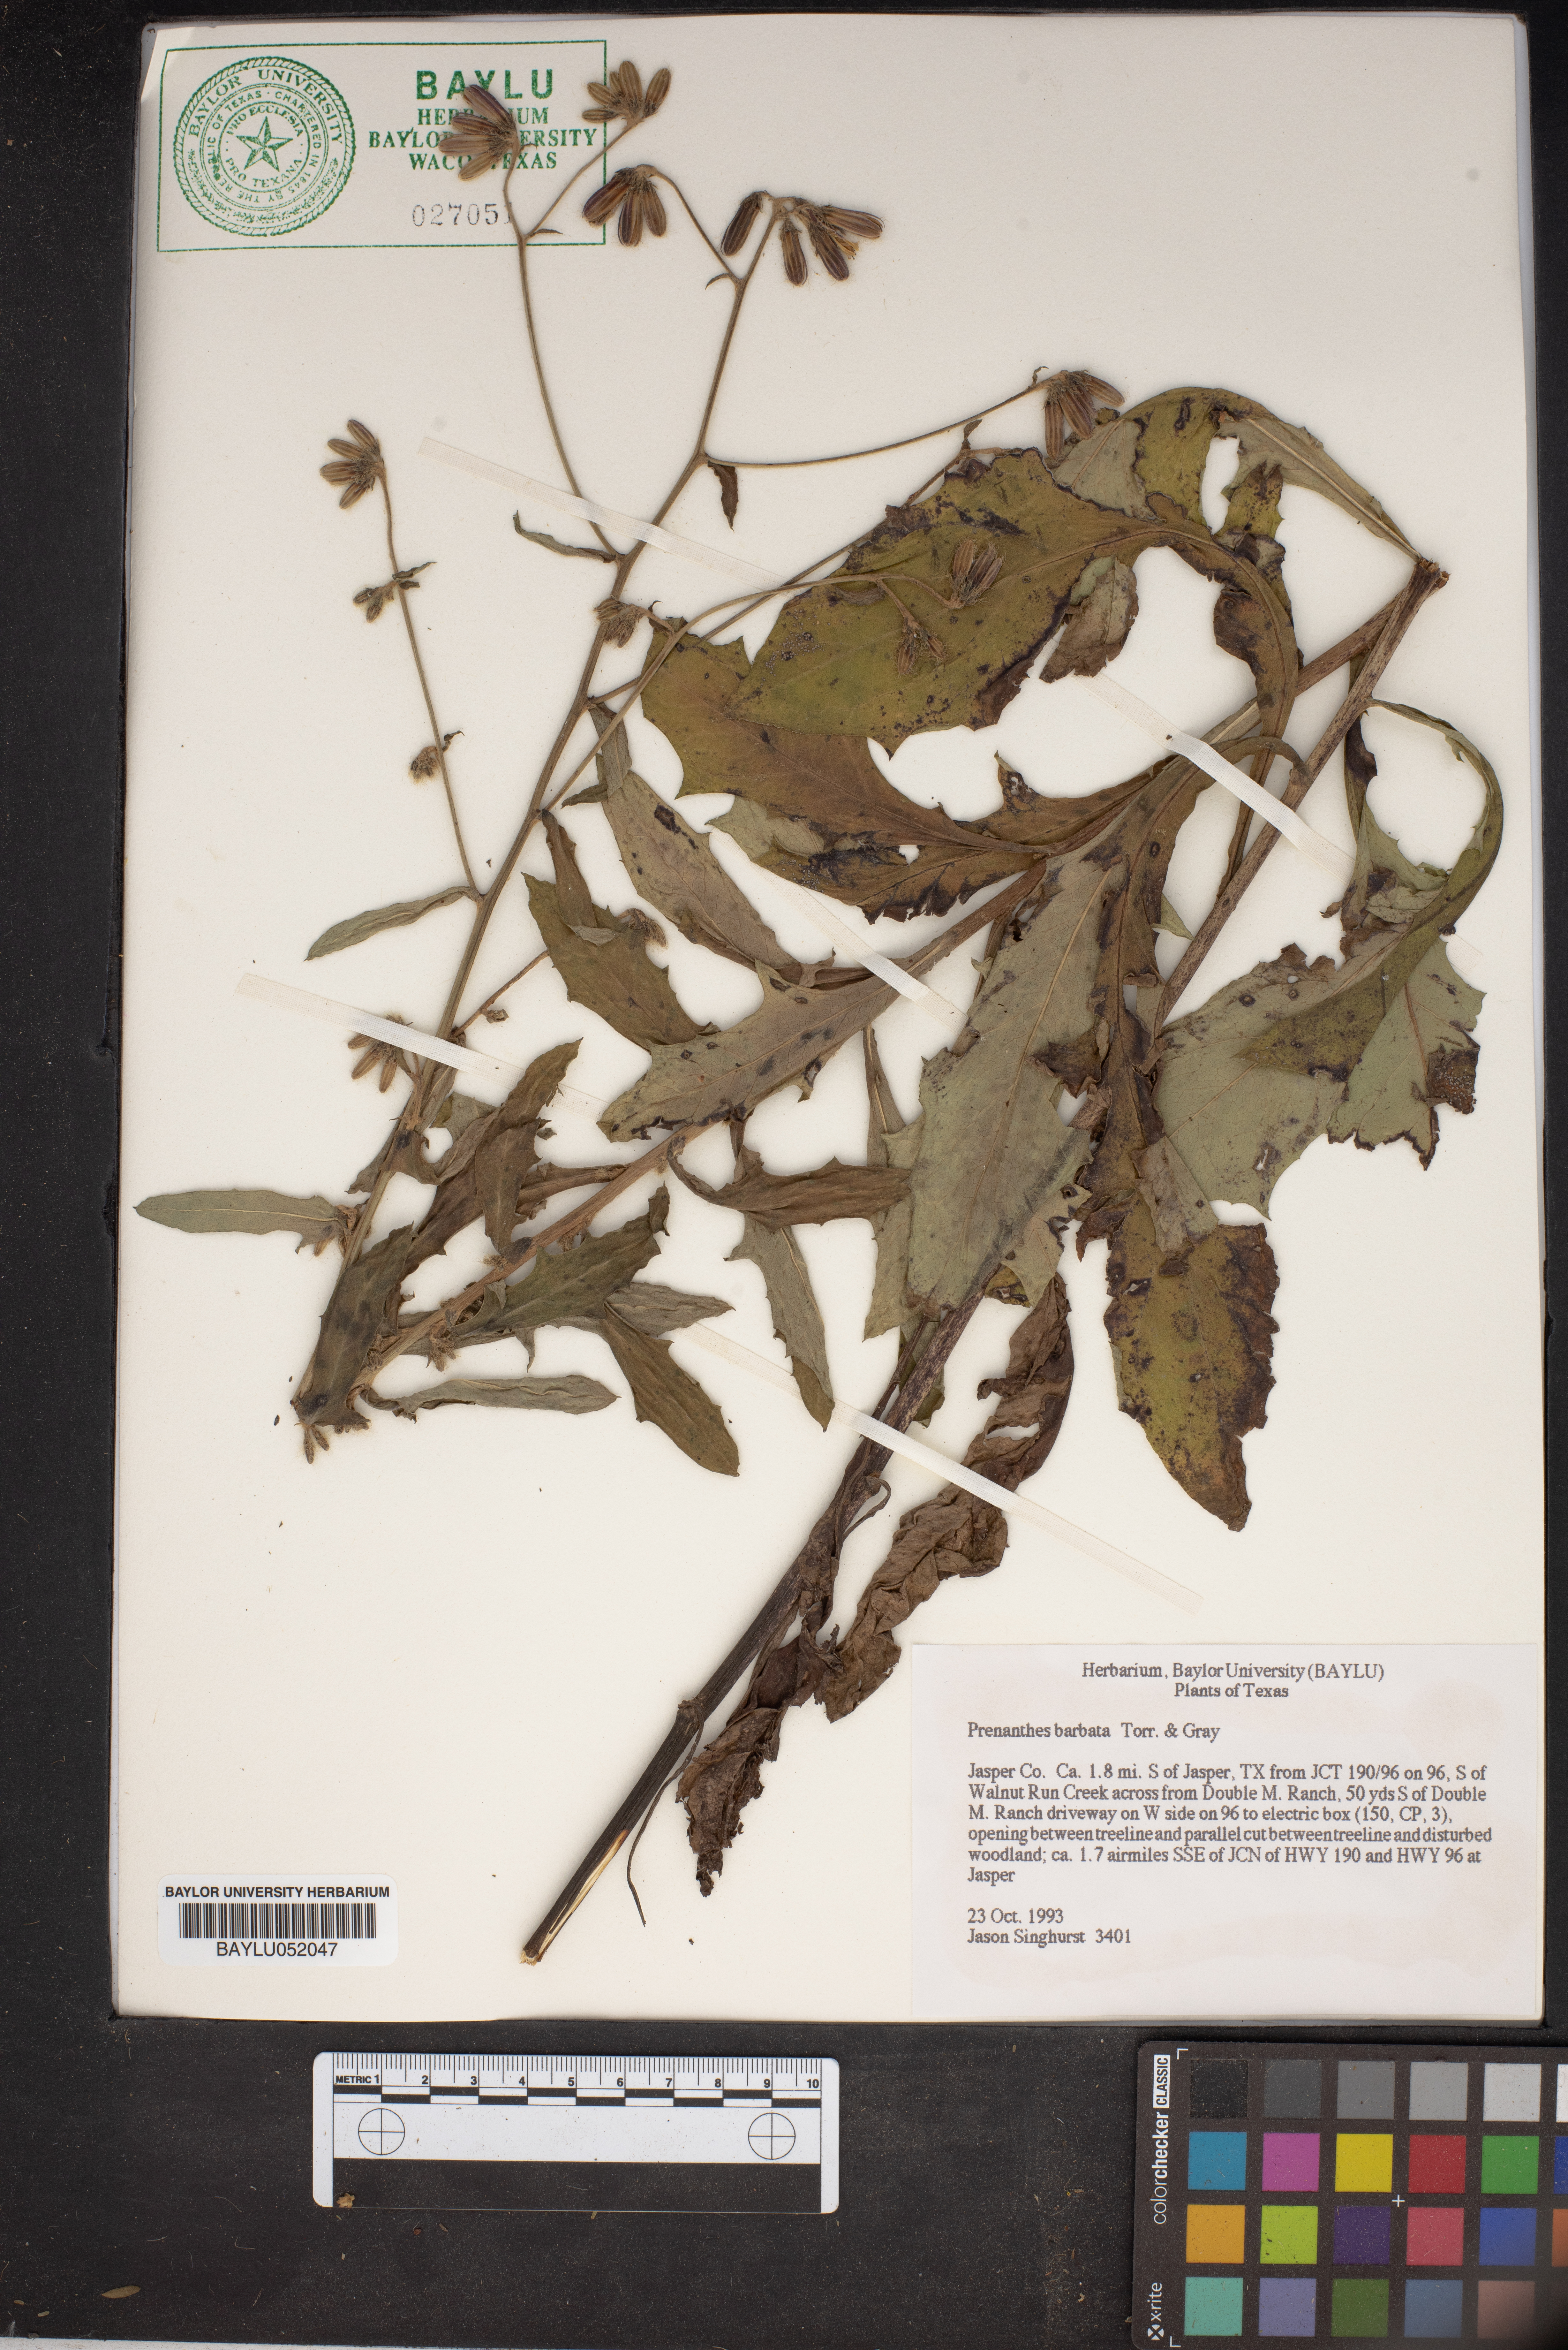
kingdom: Plantae
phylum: Tracheophyta
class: Magnoliopsida
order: Asterales
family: Asteraceae
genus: Nabalus
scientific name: Nabalus barbata
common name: Barbed rattlesnakeroot
